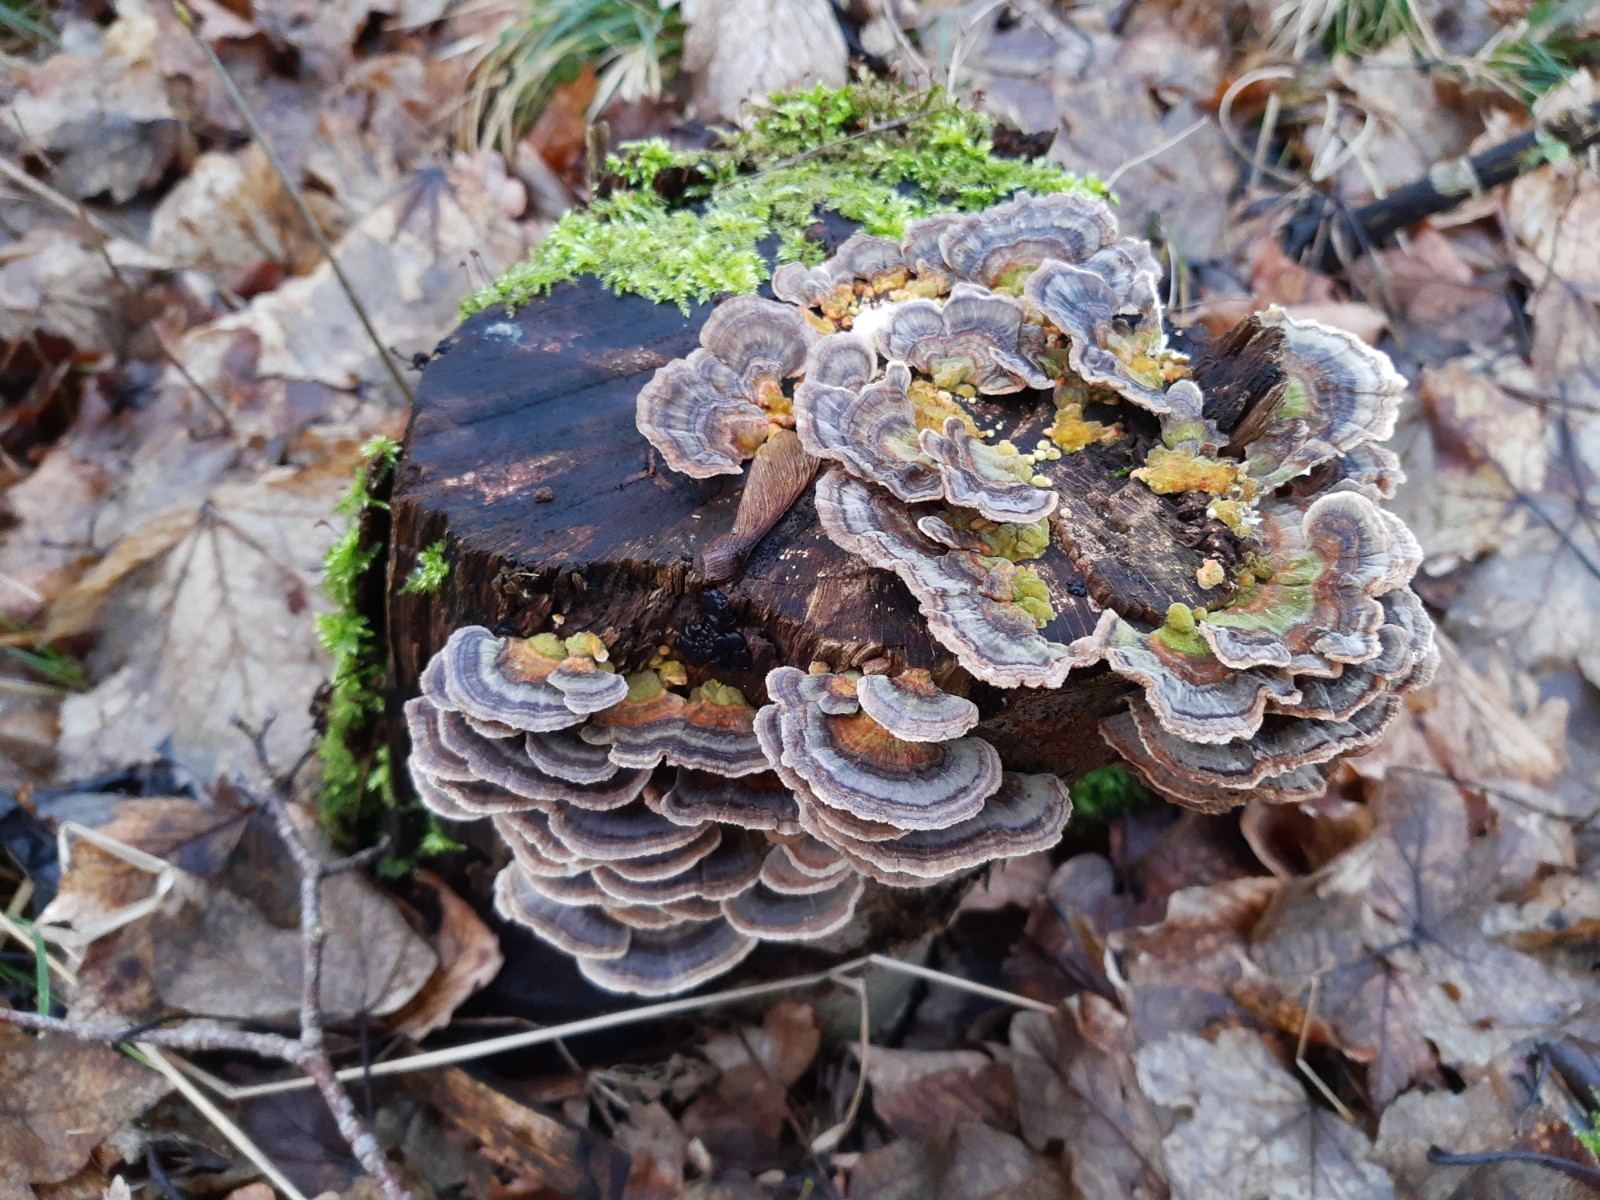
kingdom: Fungi
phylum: Basidiomycota
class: Agaricomycetes
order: Polyporales
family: Polyporaceae
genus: Trametes
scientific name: Trametes versicolor
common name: broget læderporesvamp
